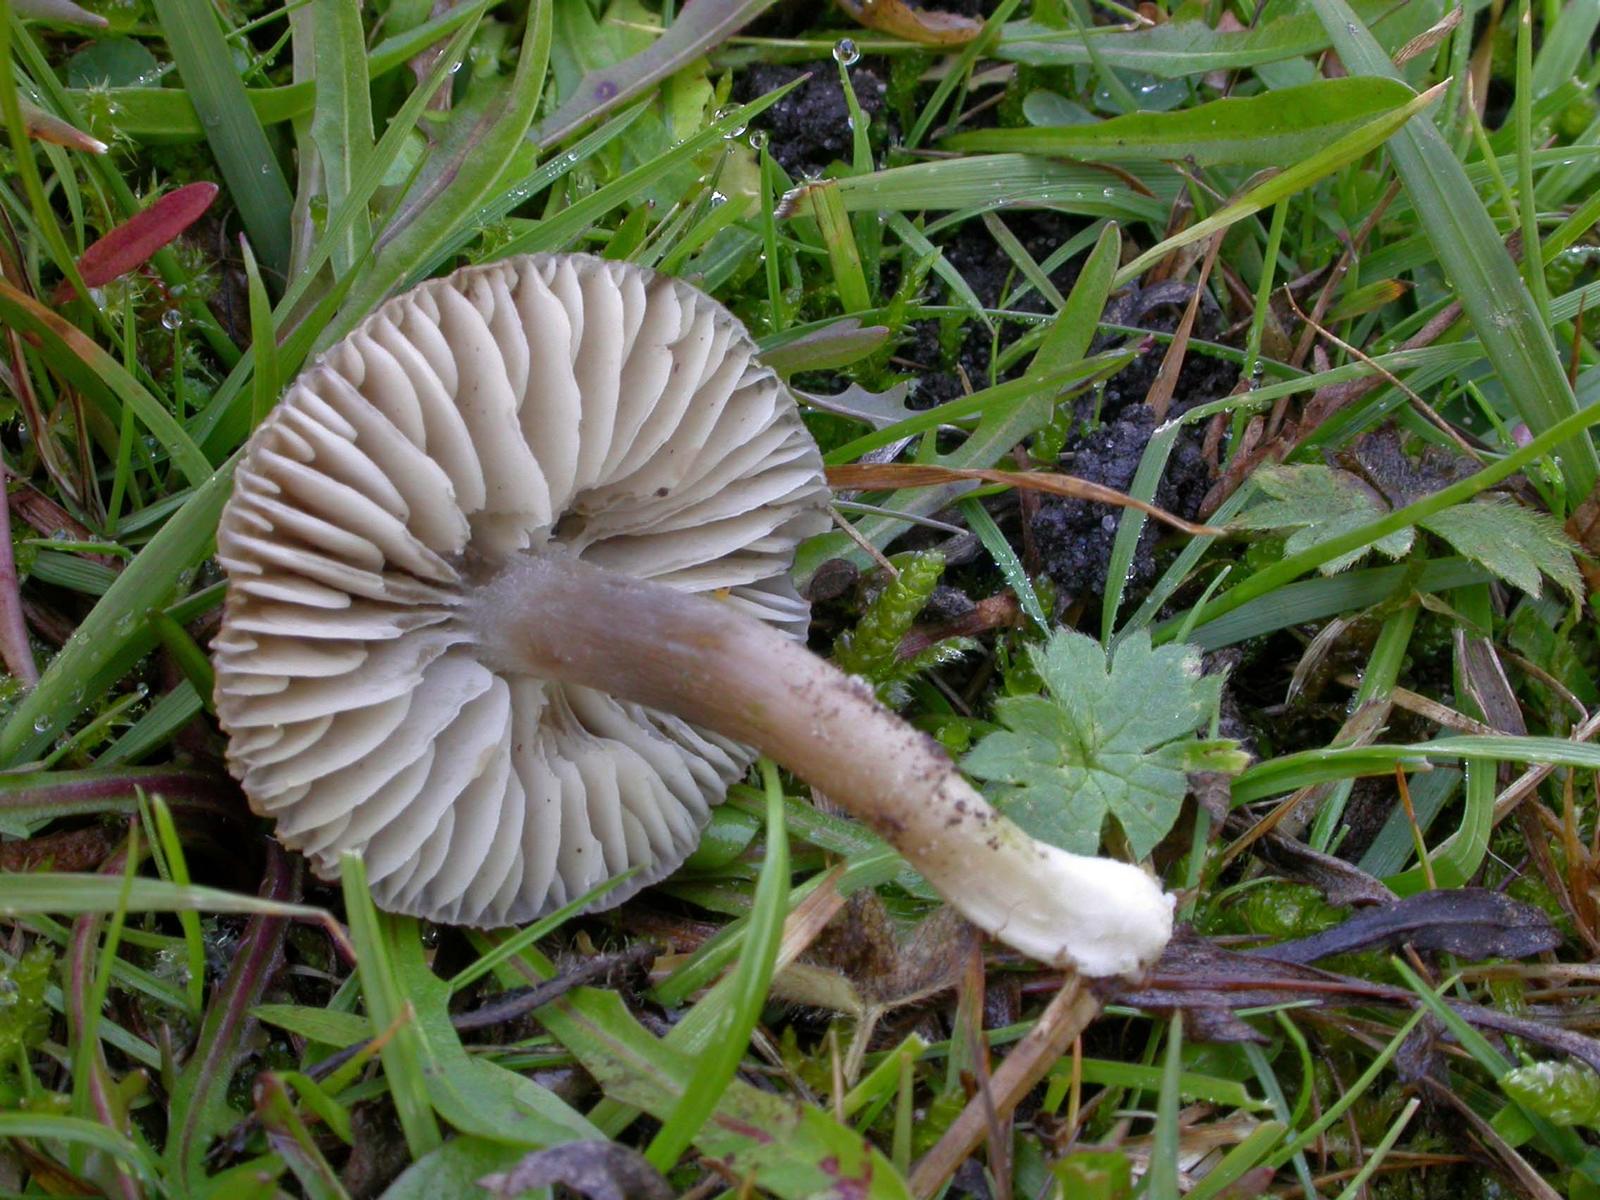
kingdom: Fungi
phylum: Basidiomycota
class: Agaricomycetes
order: Agaricales
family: Hygrophoraceae
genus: Neohygrocybe
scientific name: Neohygrocybe nitrata
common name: stinkende vokshat
